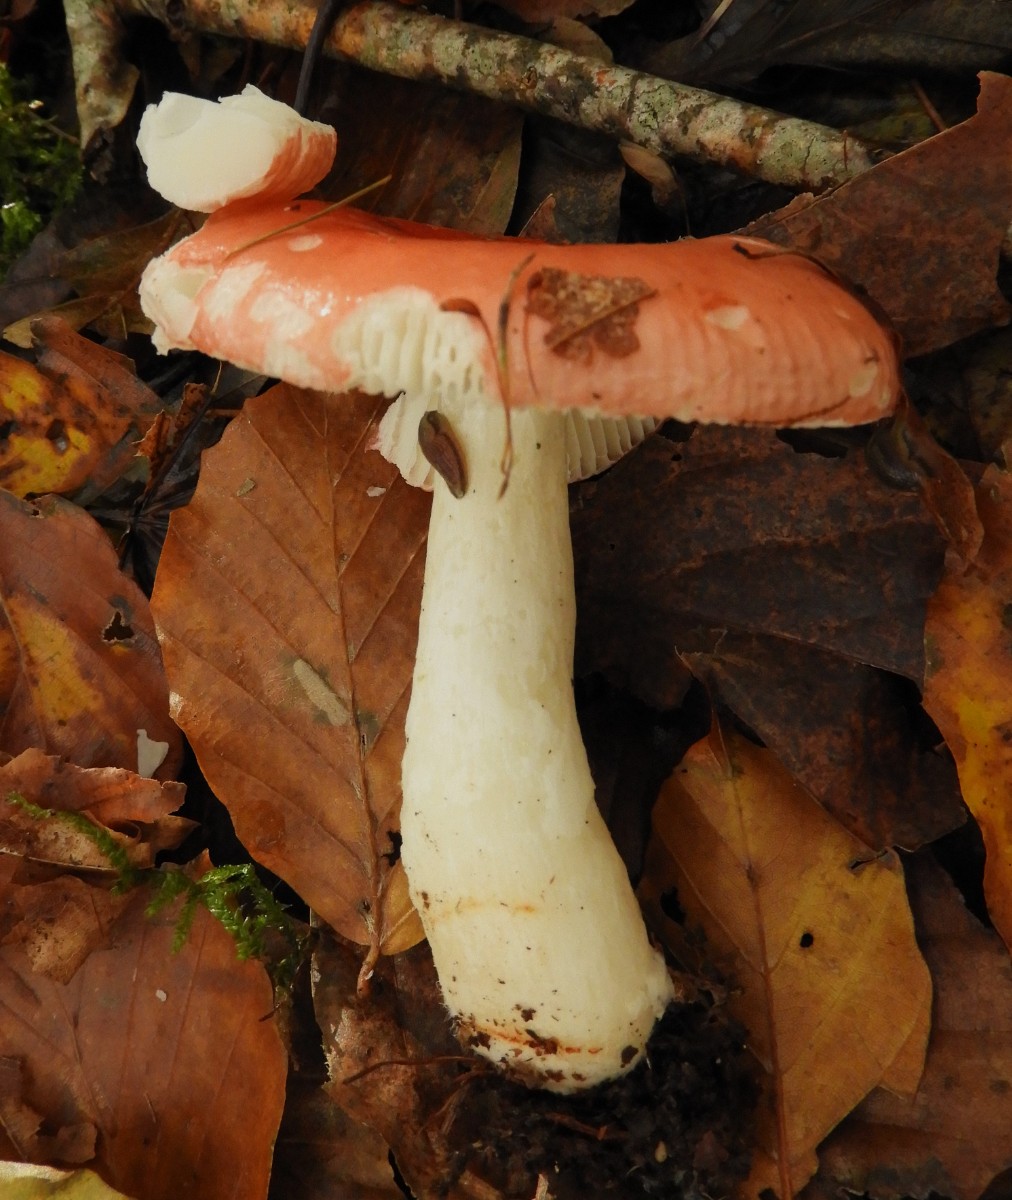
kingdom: Fungi
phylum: Basidiomycota
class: Agaricomycetes
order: Russulales
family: Russulaceae
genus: Russula
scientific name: Russula nobilis
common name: lille gift-skørhat
